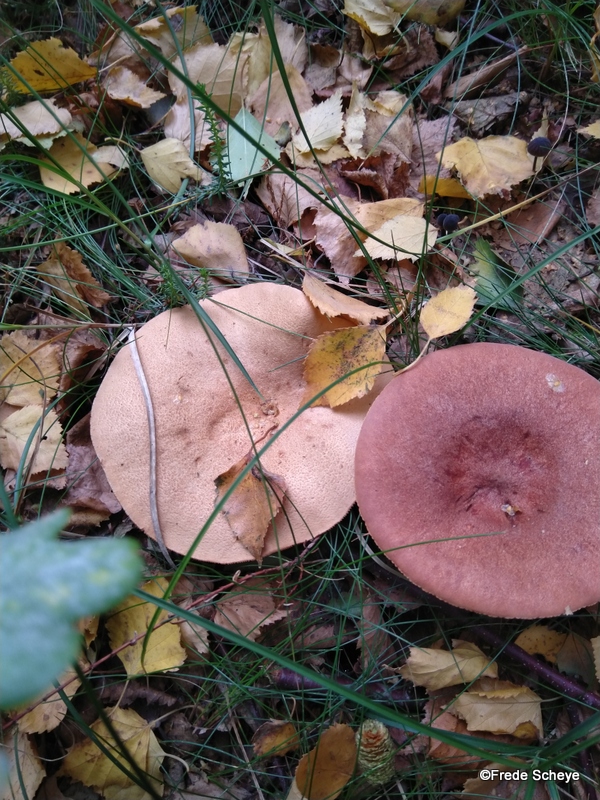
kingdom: Fungi
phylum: Basidiomycota
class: Agaricomycetes
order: Russulales
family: Russulaceae
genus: Lactarius
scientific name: Lactarius rufus
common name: rødbrun mælkehat
